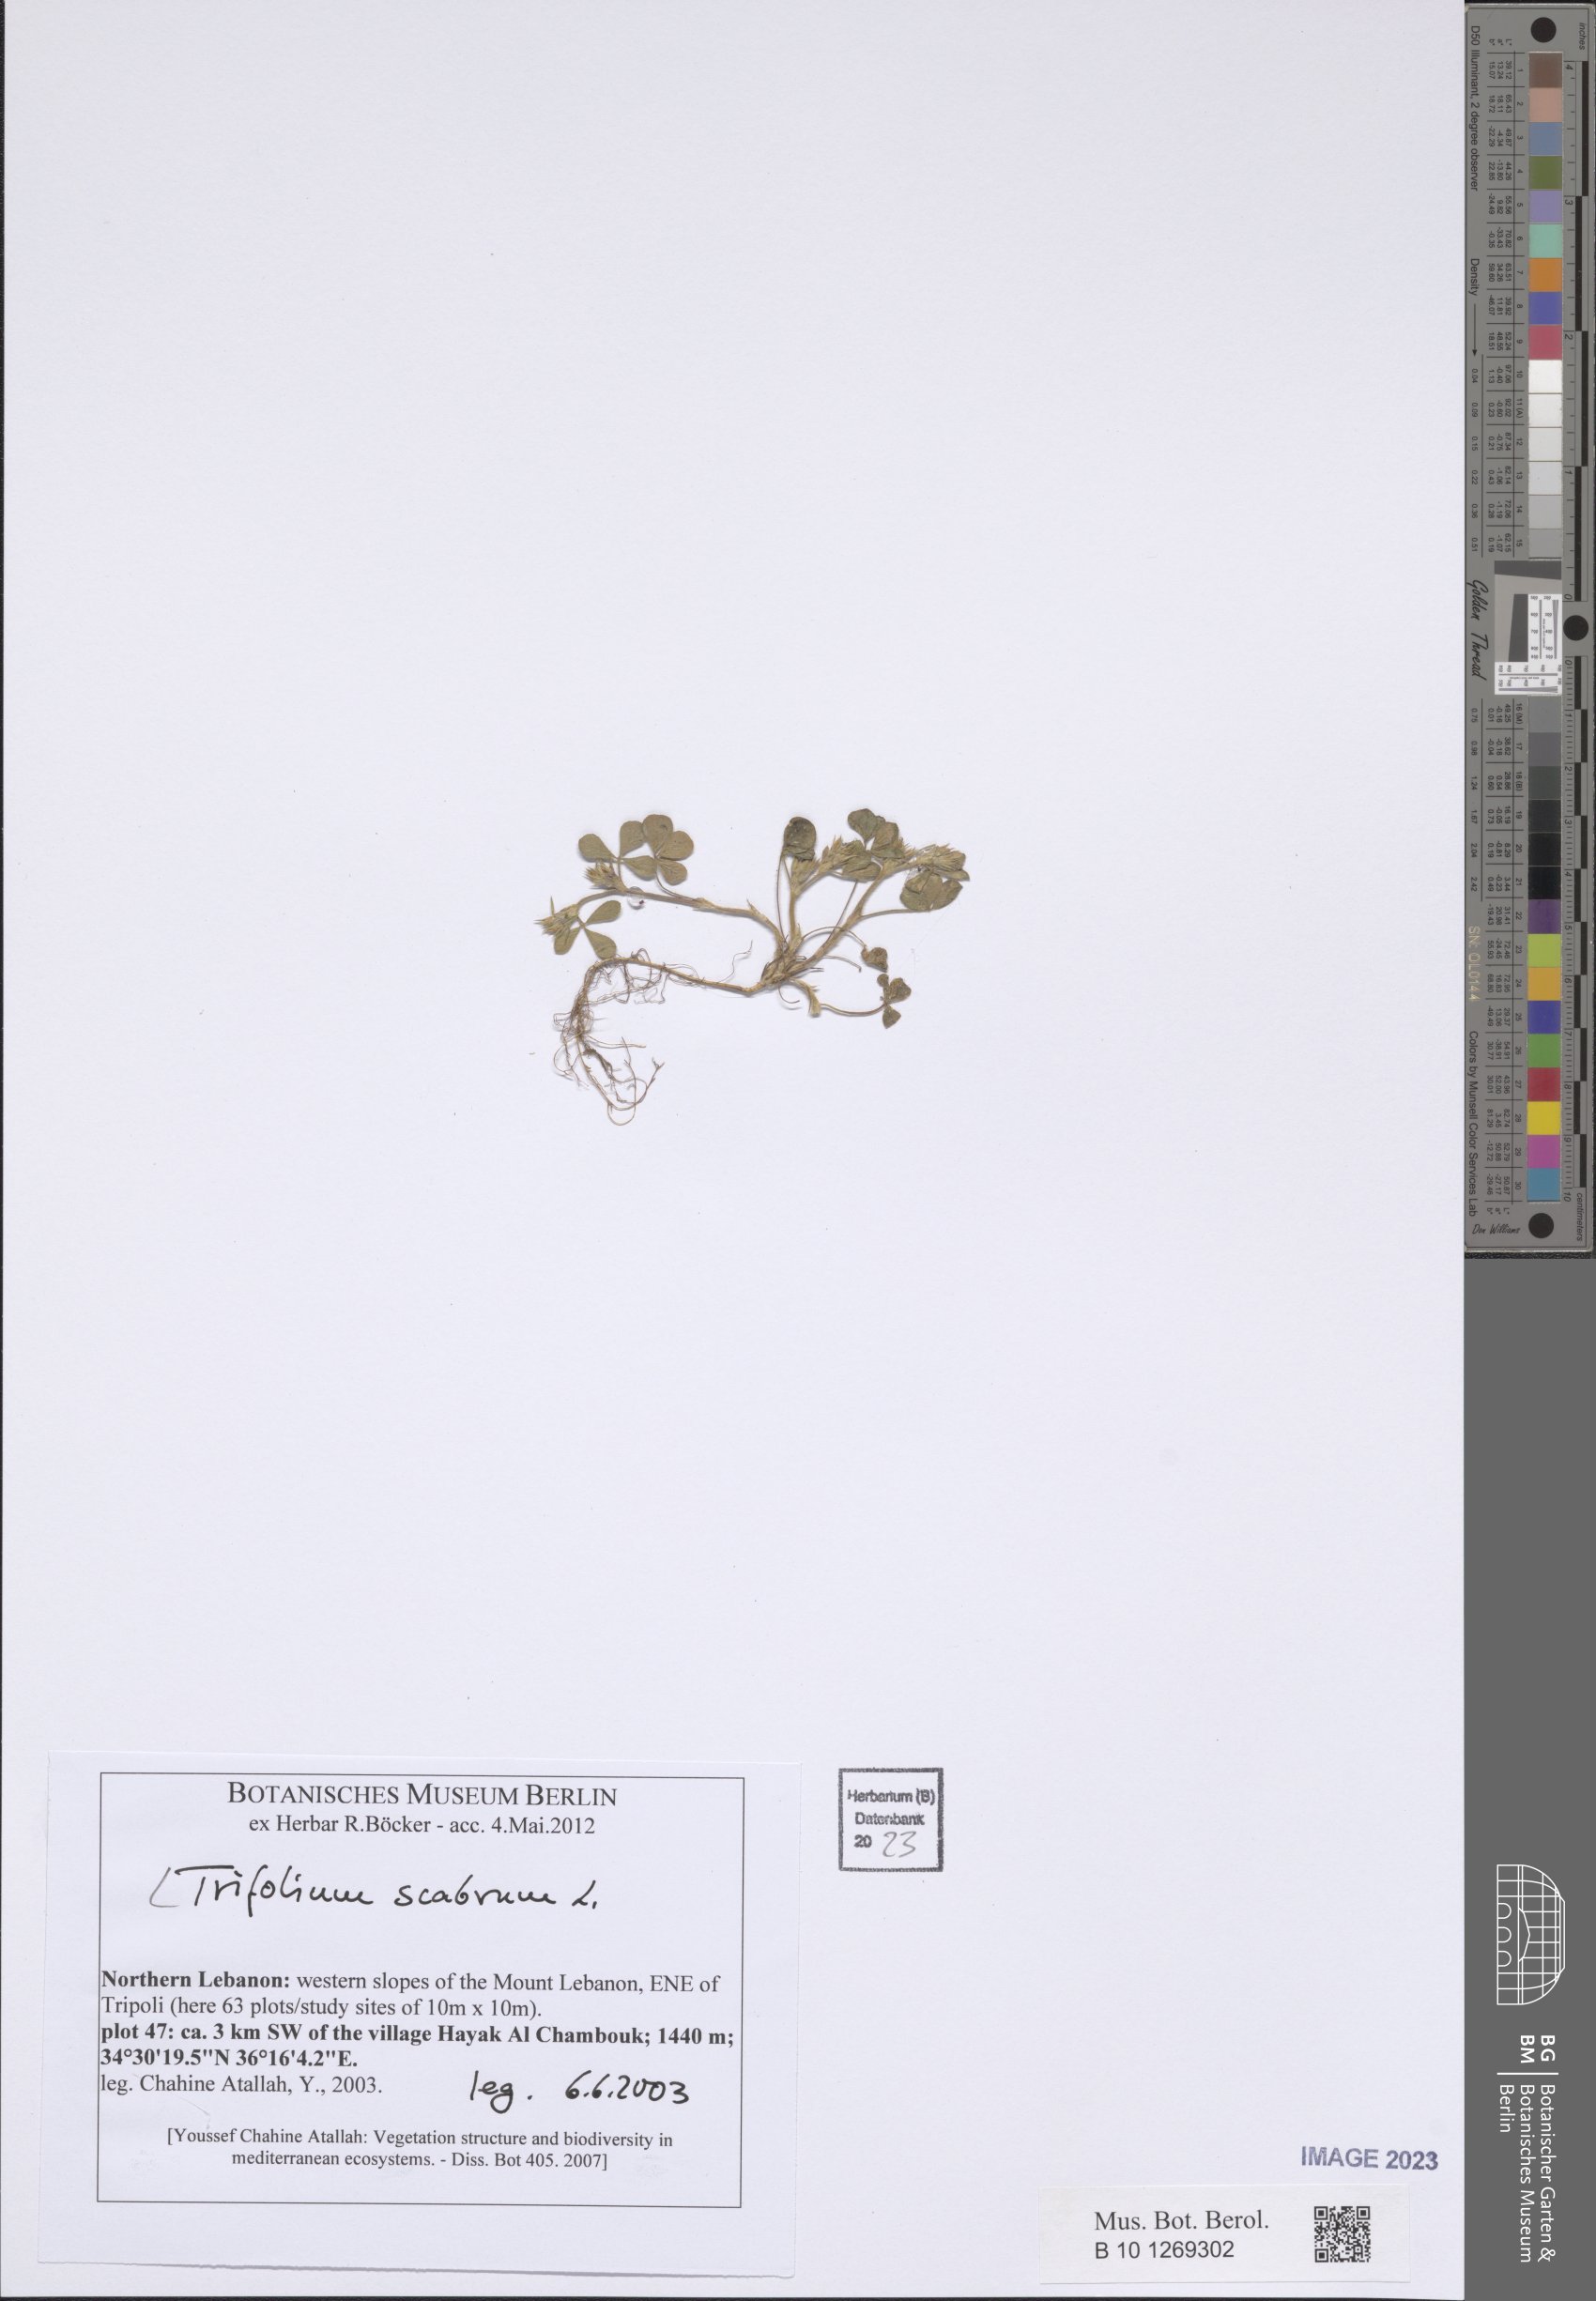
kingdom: Plantae
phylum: Tracheophyta
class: Magnoliopsida
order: Fabales
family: Fabaceae
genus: Trifolium
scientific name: Trifolium scabrum
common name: Rough clover
